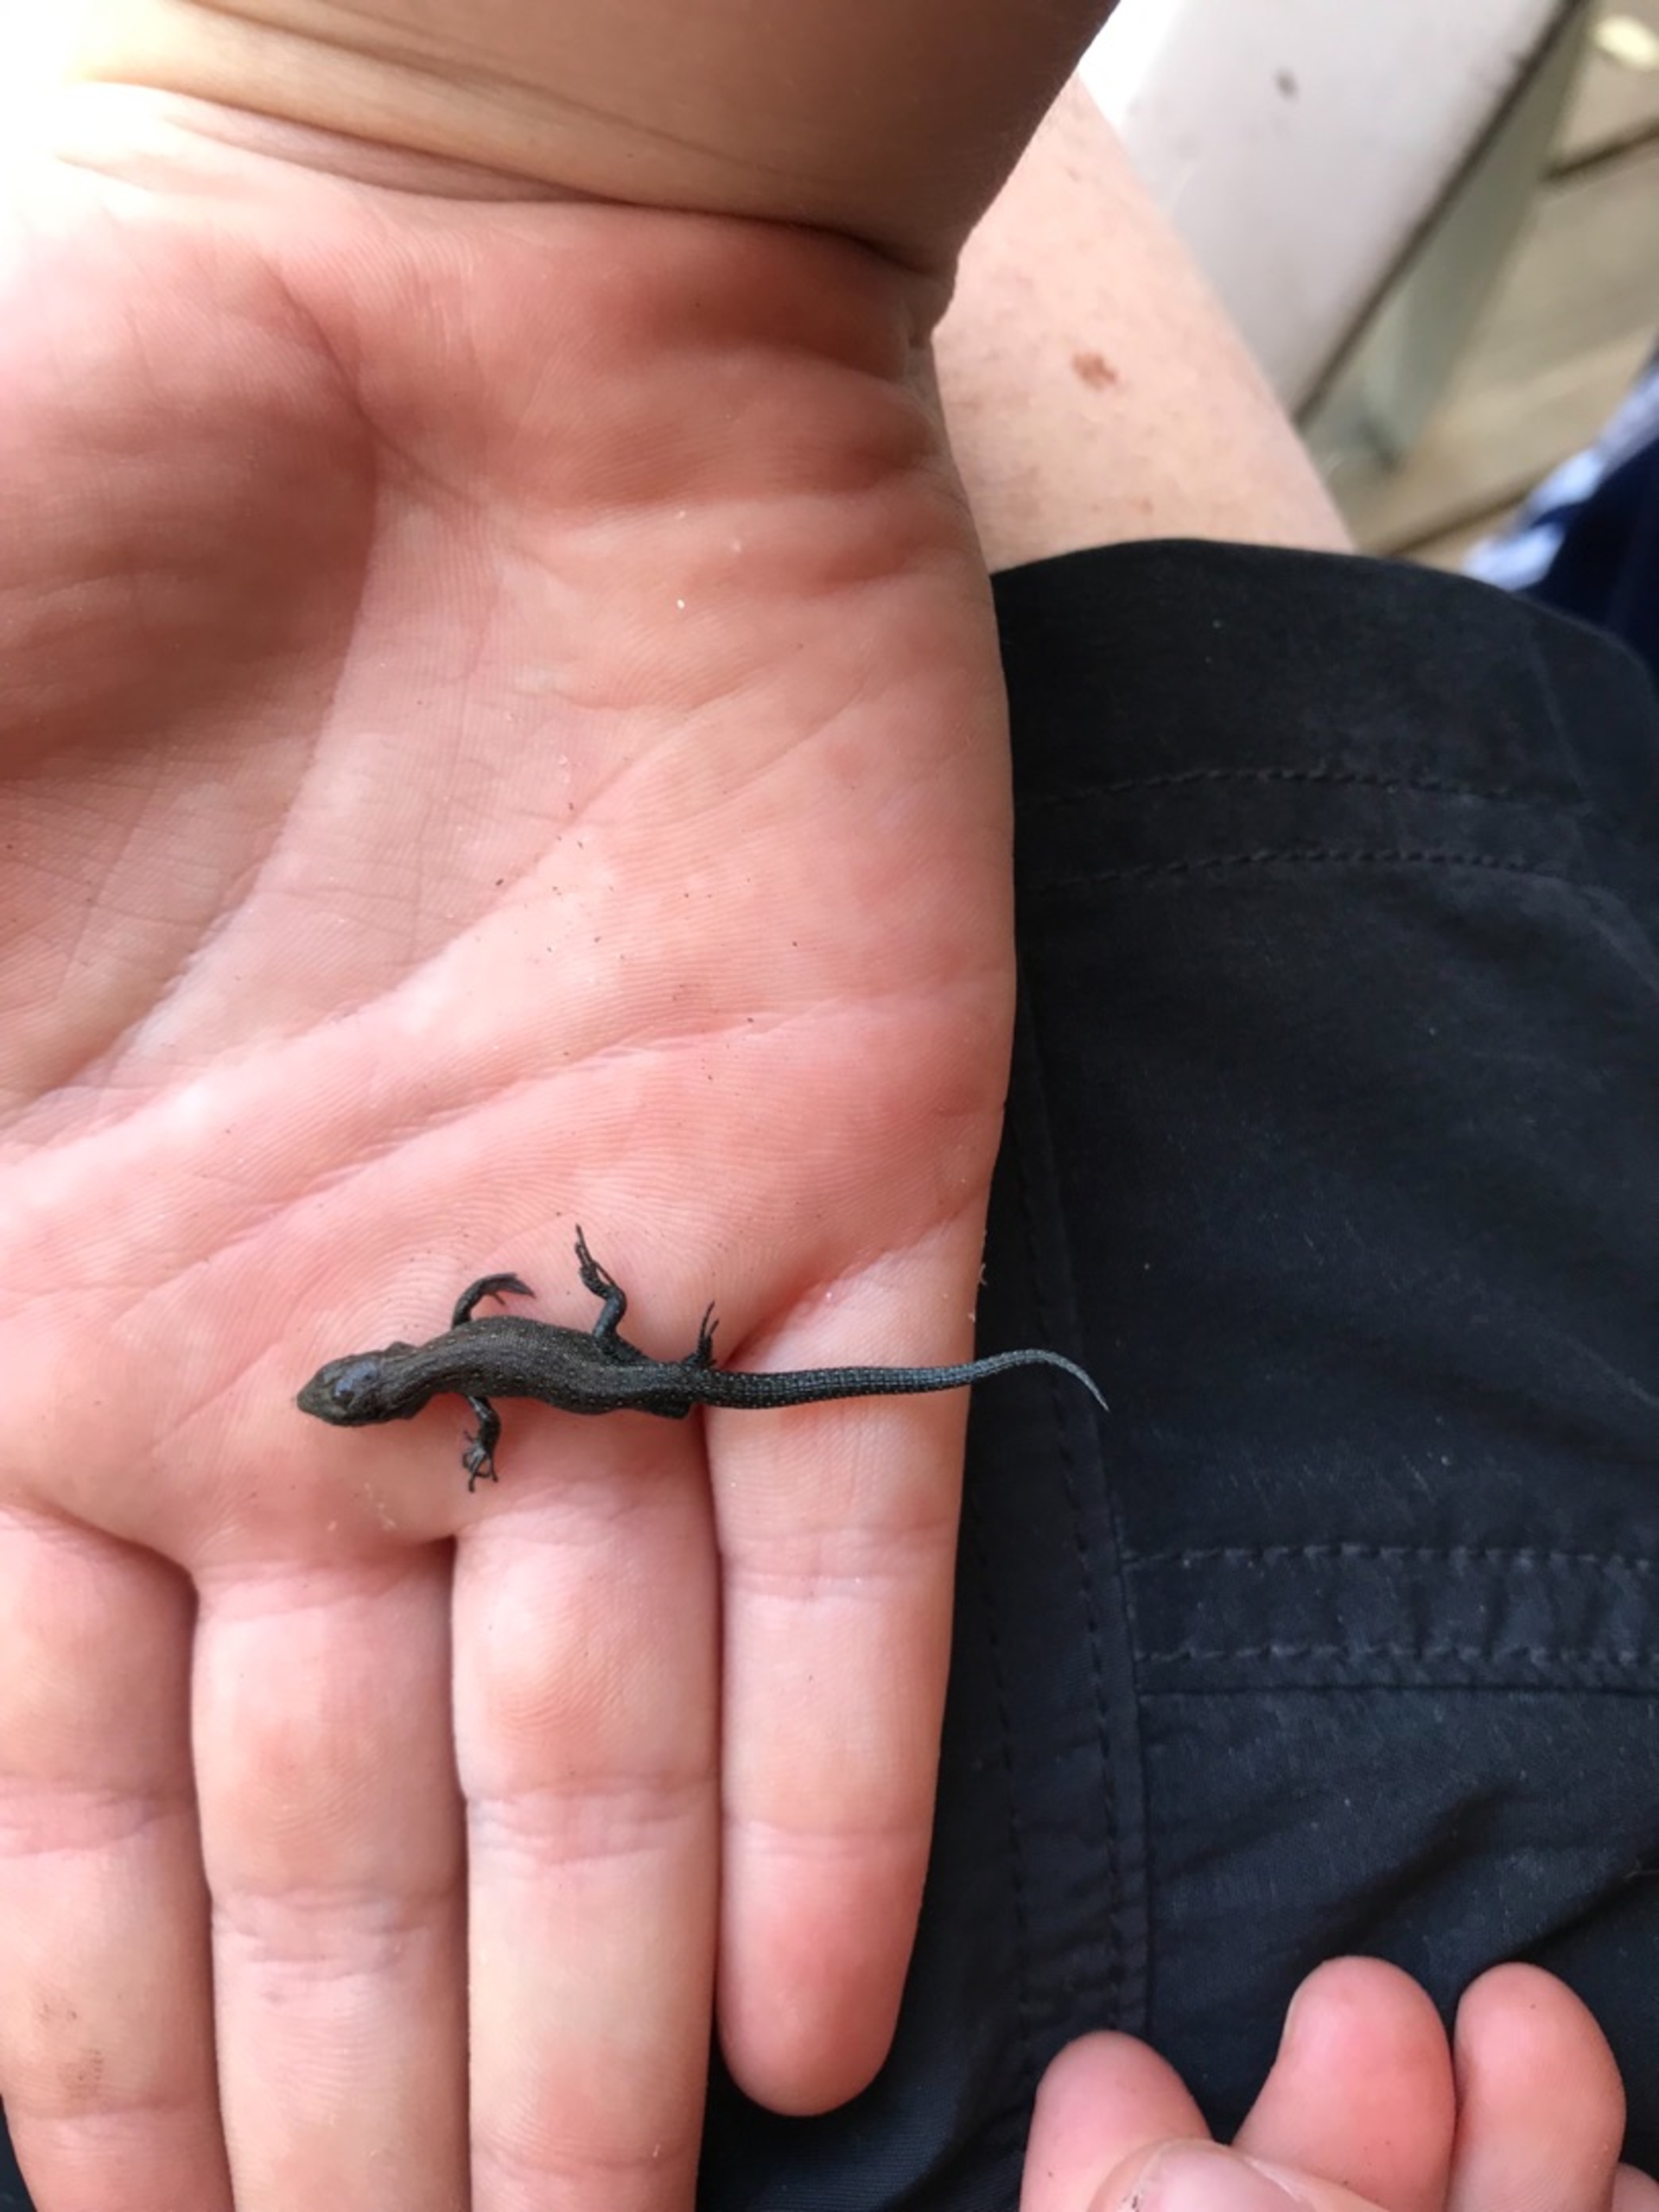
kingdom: Animalia
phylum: Chordata
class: Squamata
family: Lacertidae
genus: Zootoca
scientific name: Zootoca vivipara
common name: Skovfirben
